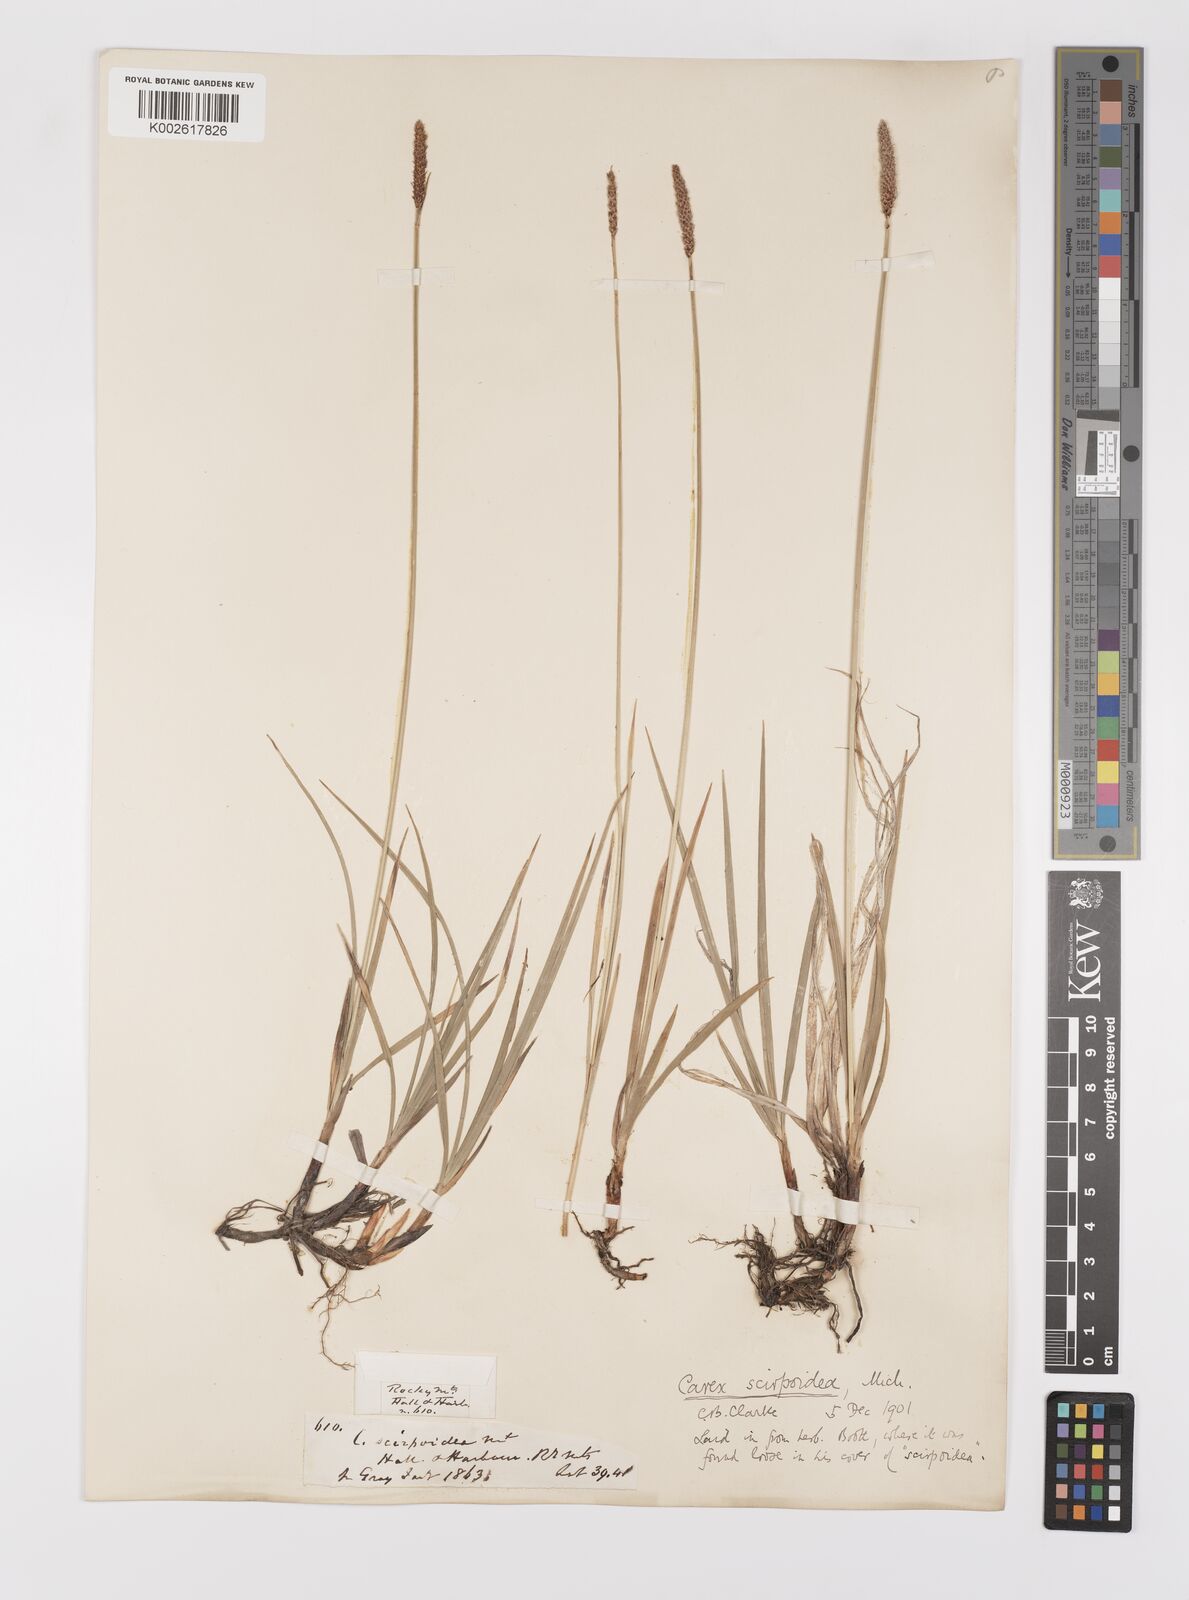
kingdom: Plantae
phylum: Tracheophyta
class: Liliopsida
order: Poales
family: Cyperaceae
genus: Carex
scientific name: Carex scirpoidea
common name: Canada single-spike sedge
